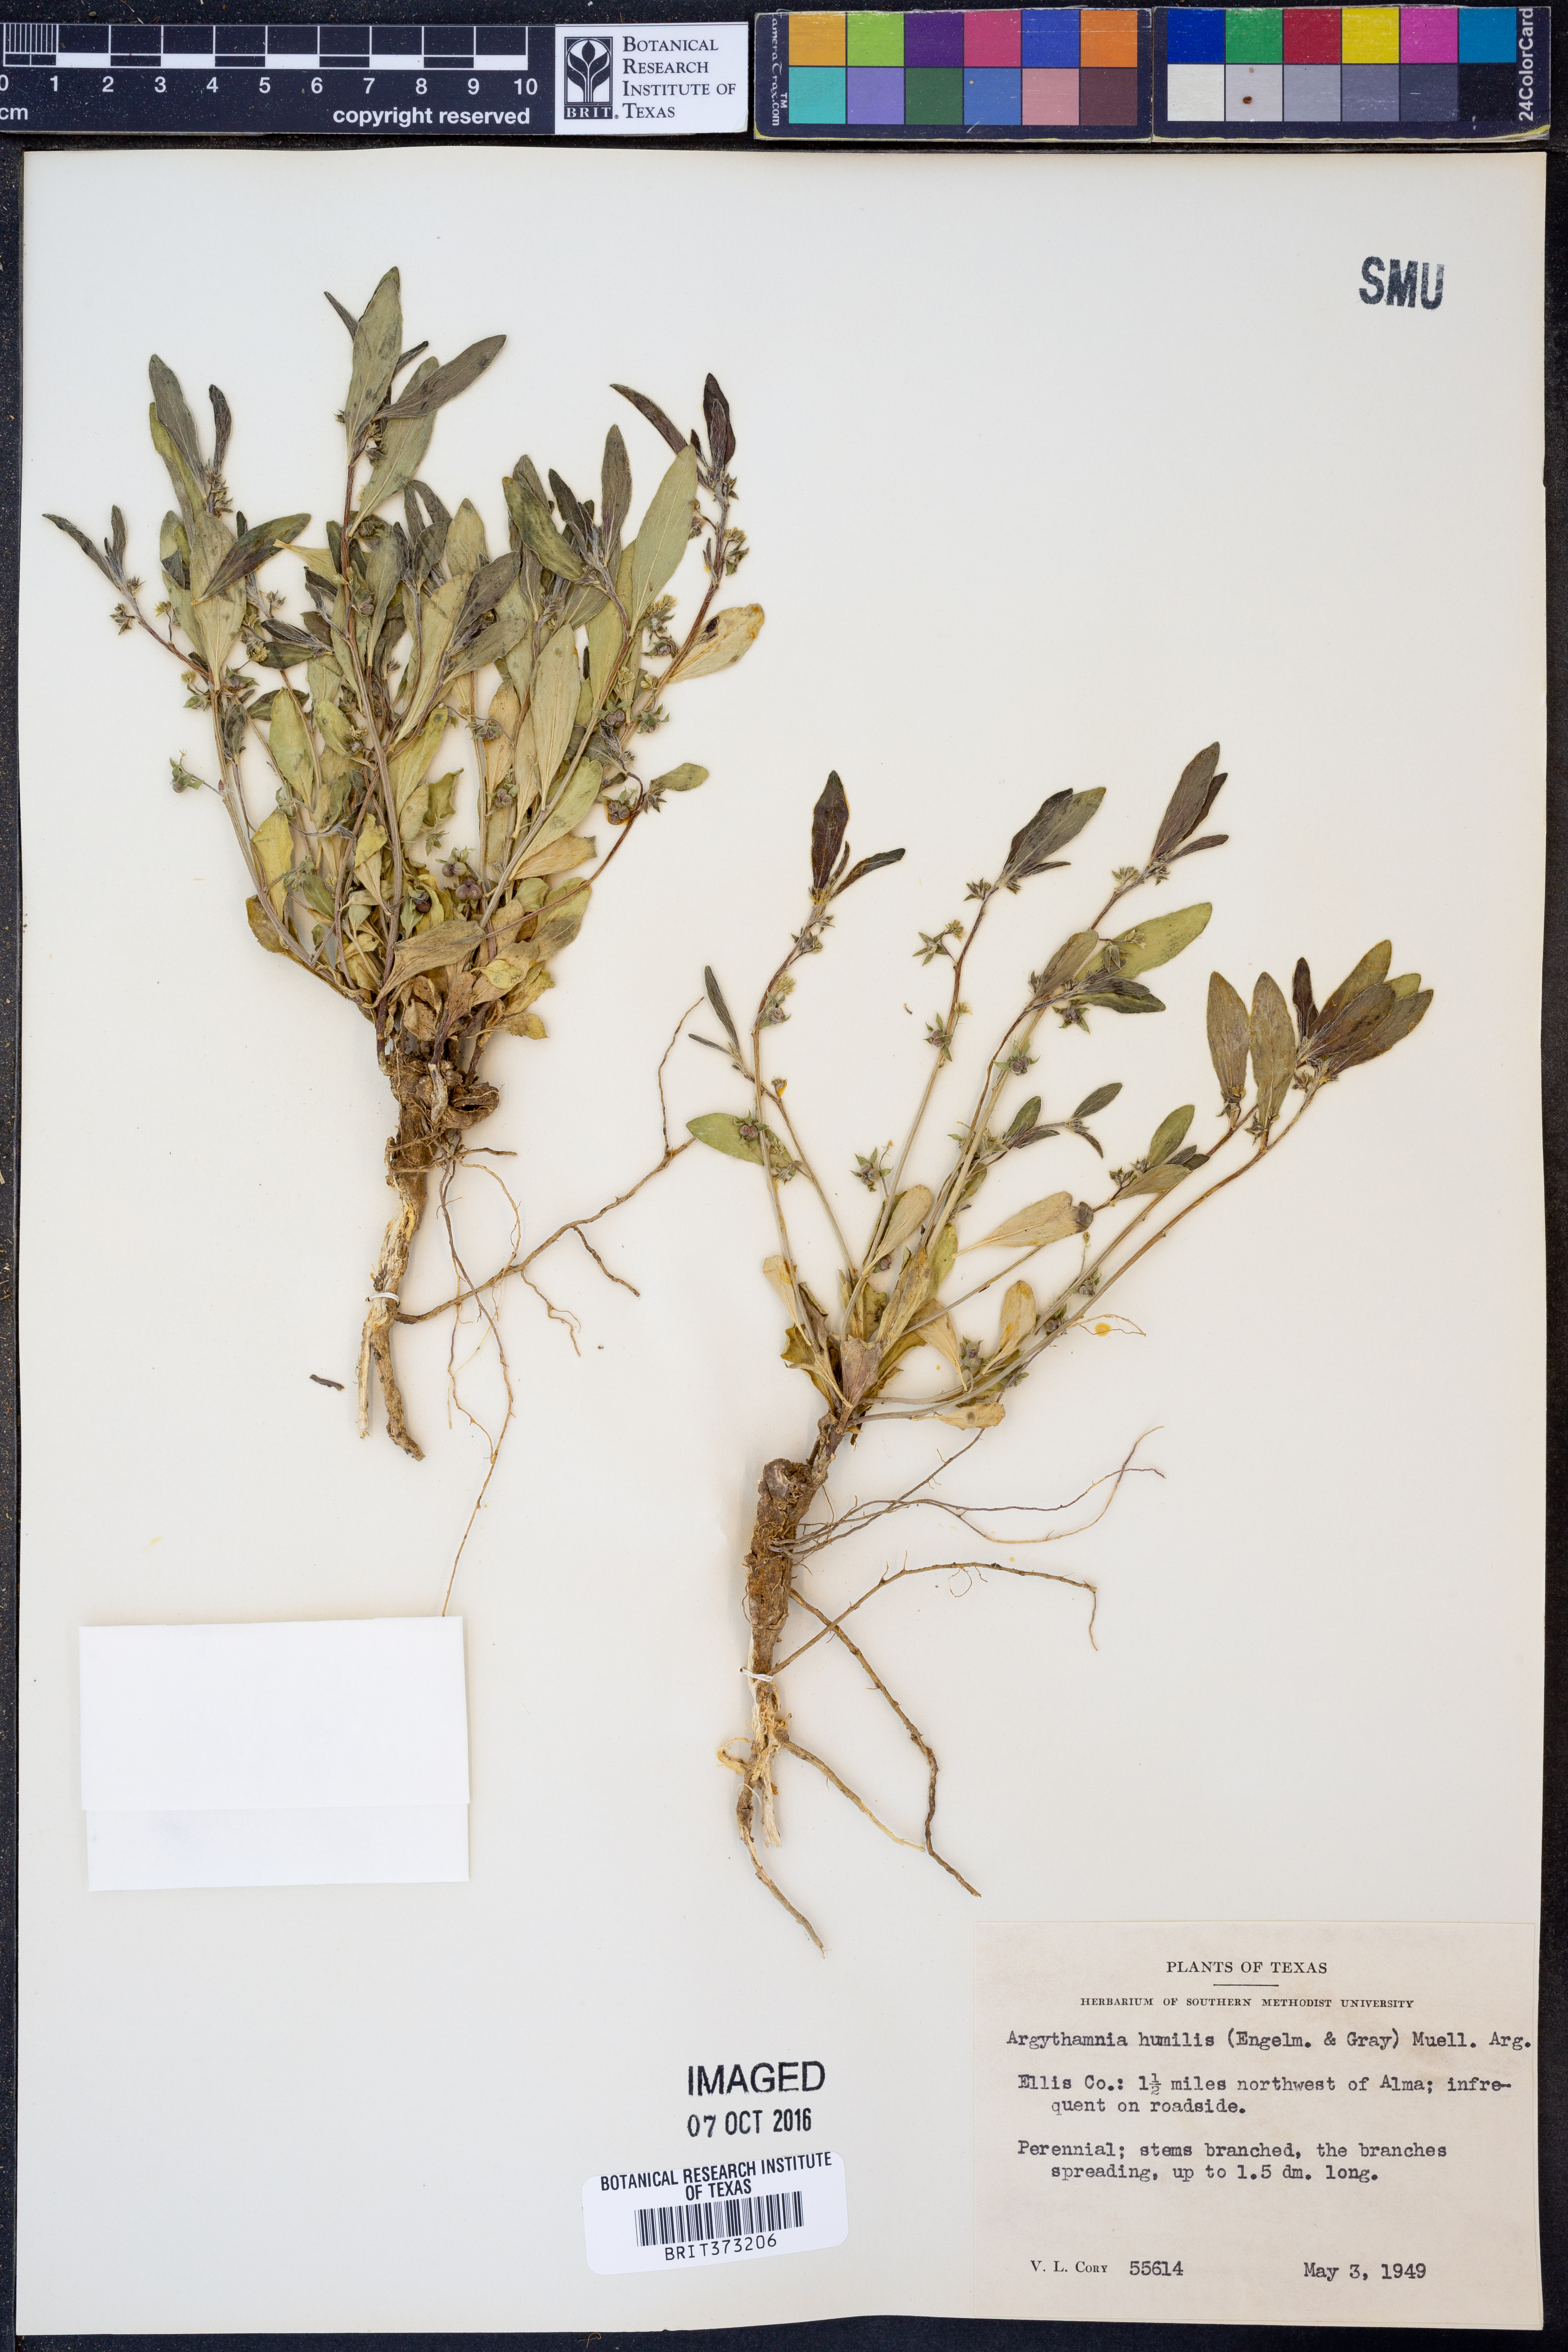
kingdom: Plantae
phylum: Tracheophyta
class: Magnoliopsida
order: Malpighiales
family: Euphorbiaceae
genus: Ditaxis
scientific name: Ditaxis humilis
